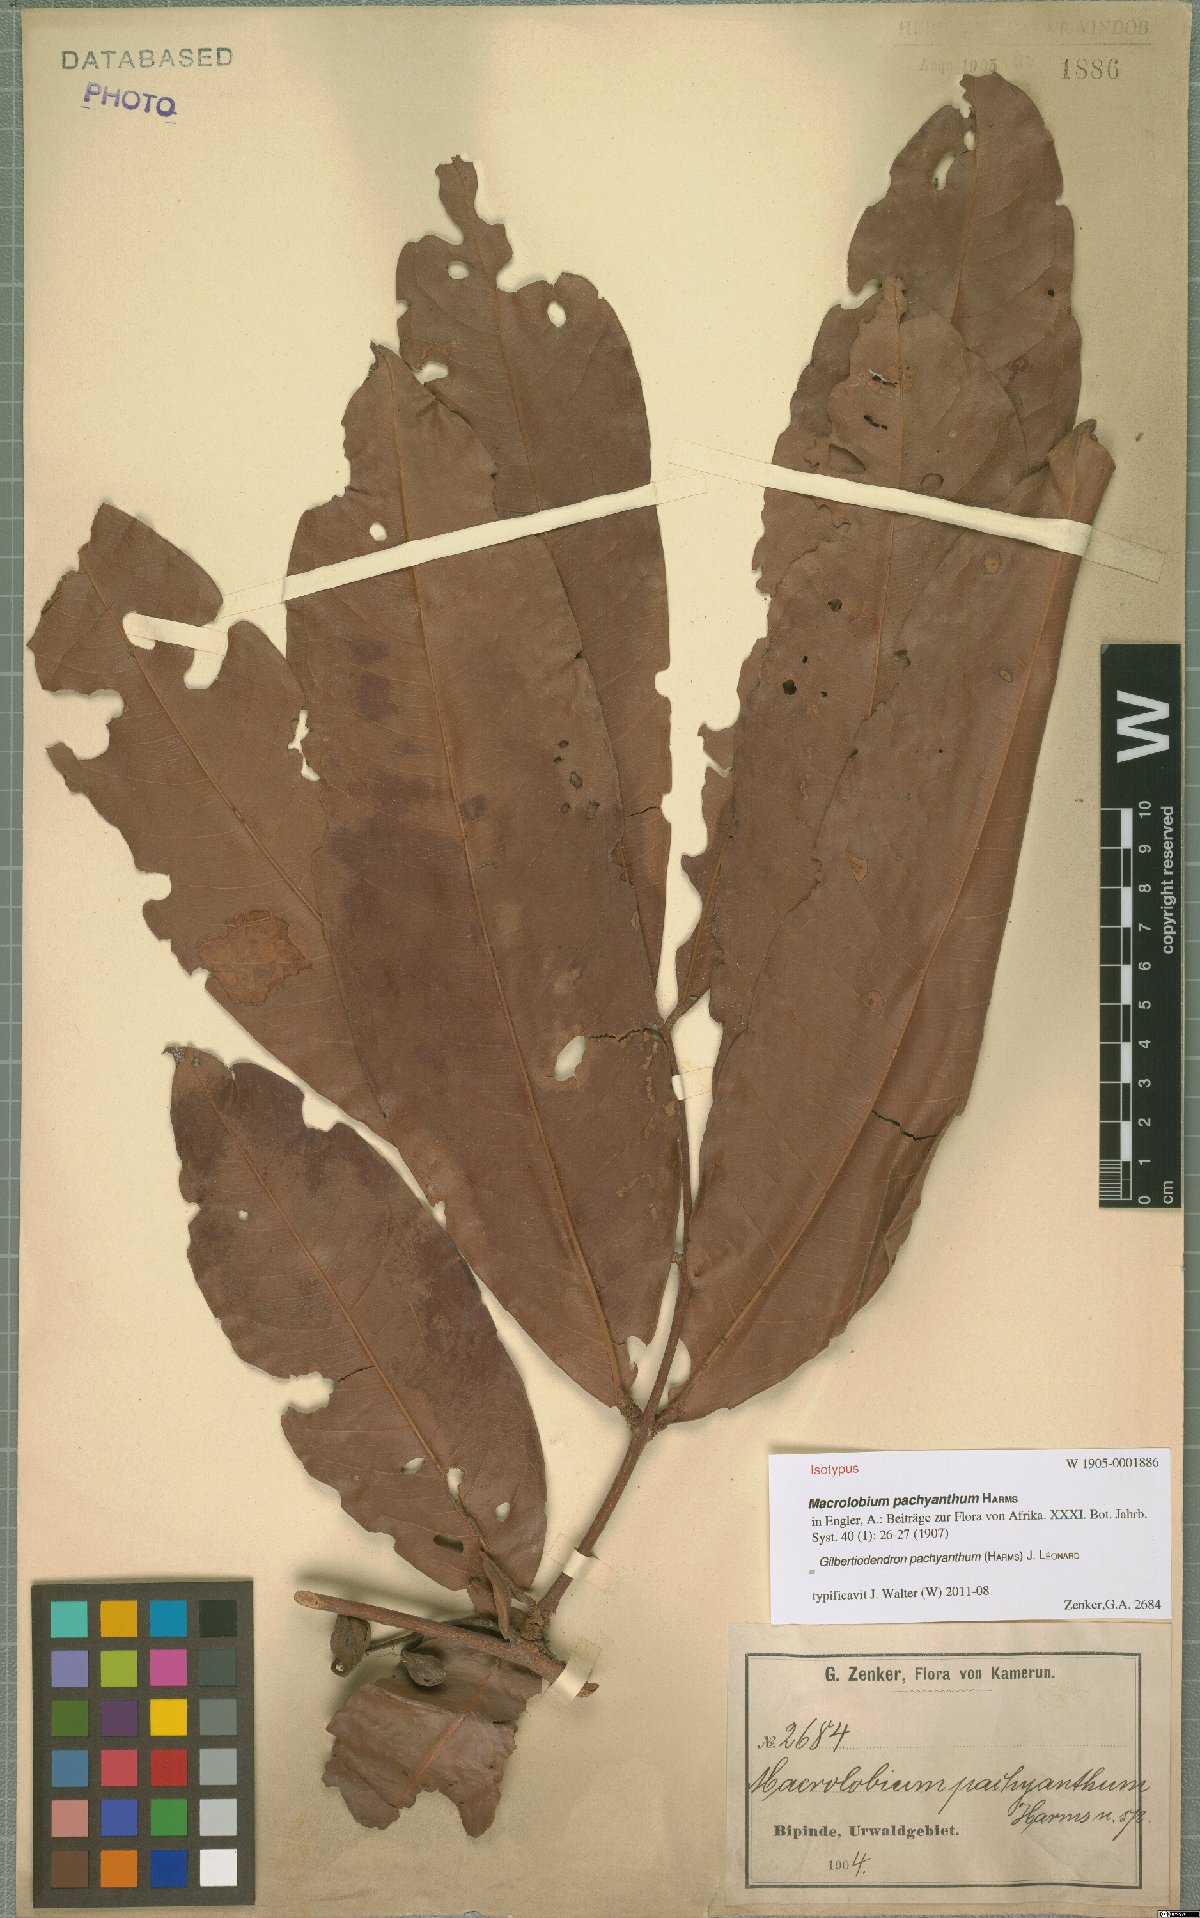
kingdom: Plantae
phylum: Tracheophyta
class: Magnoliopsida
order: Fabales
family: Fabaceae
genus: Gilbertiodendron
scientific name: Gilbertiodendron pachyanthum
